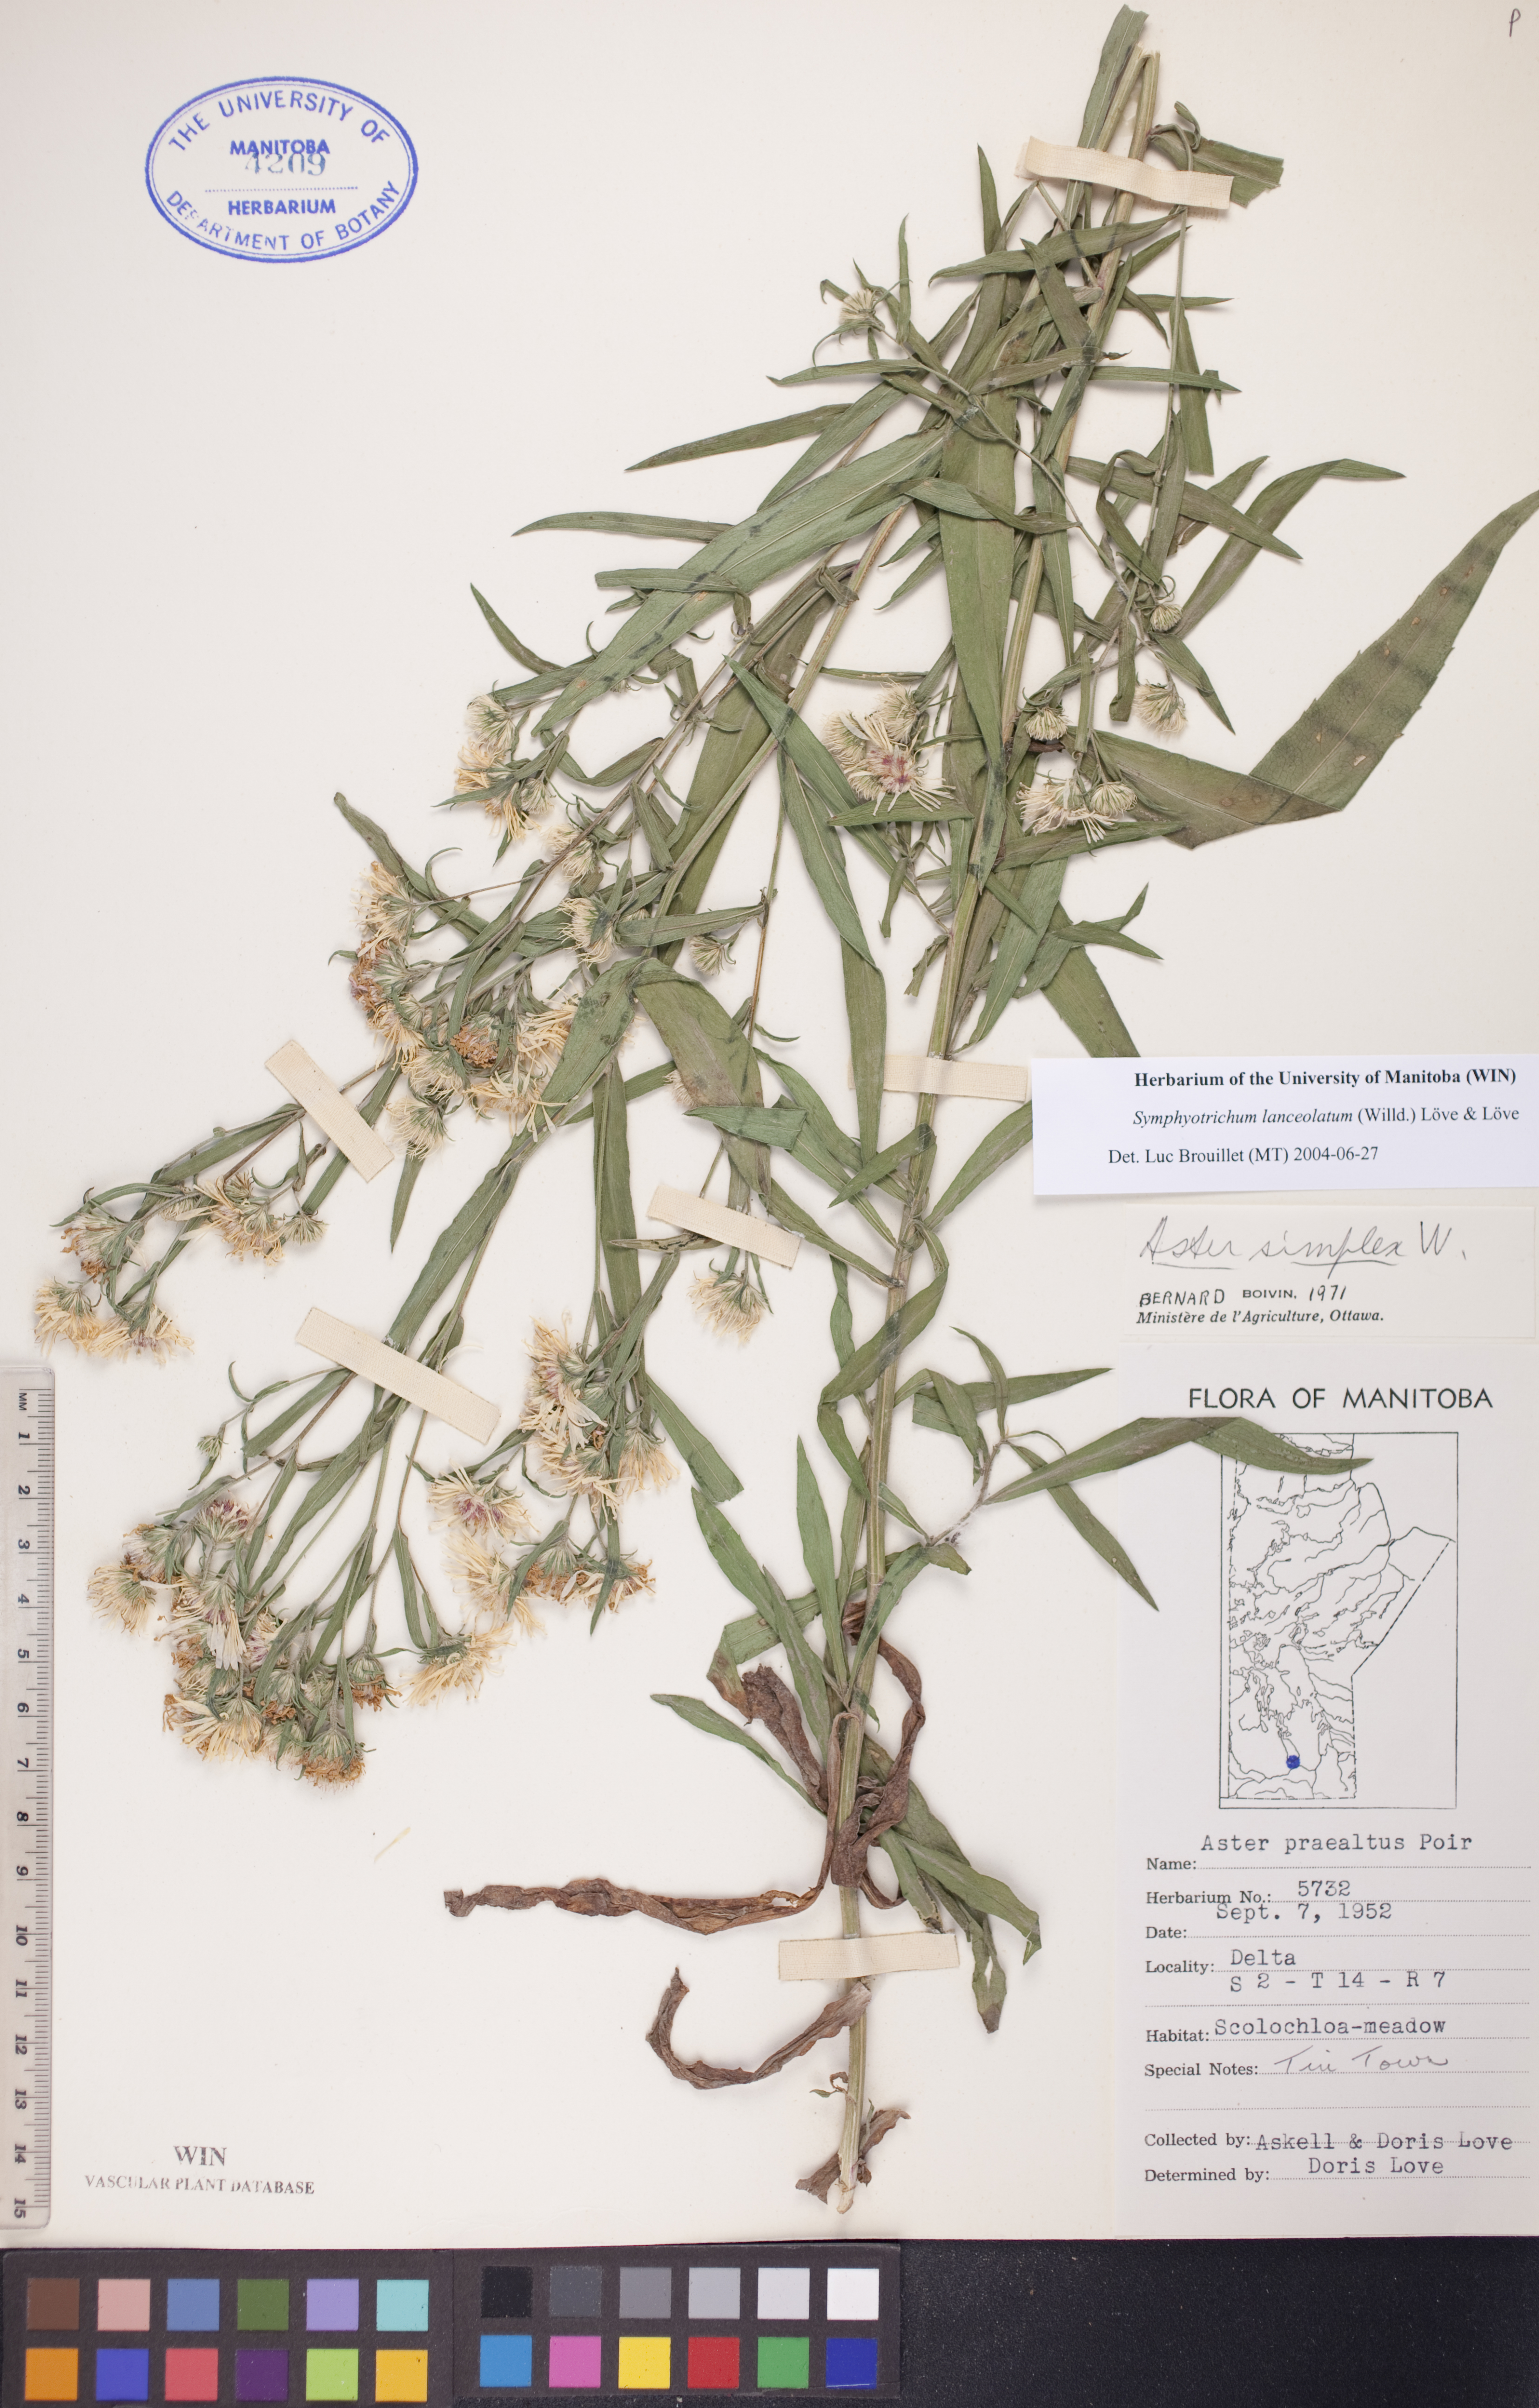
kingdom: Plantae
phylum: Tracheophyta
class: Magnoliopsida
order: Asterales
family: Asteraceae
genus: Symphyotrichum
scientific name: Symphyotrichum lanceolatum
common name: Panicled aster
